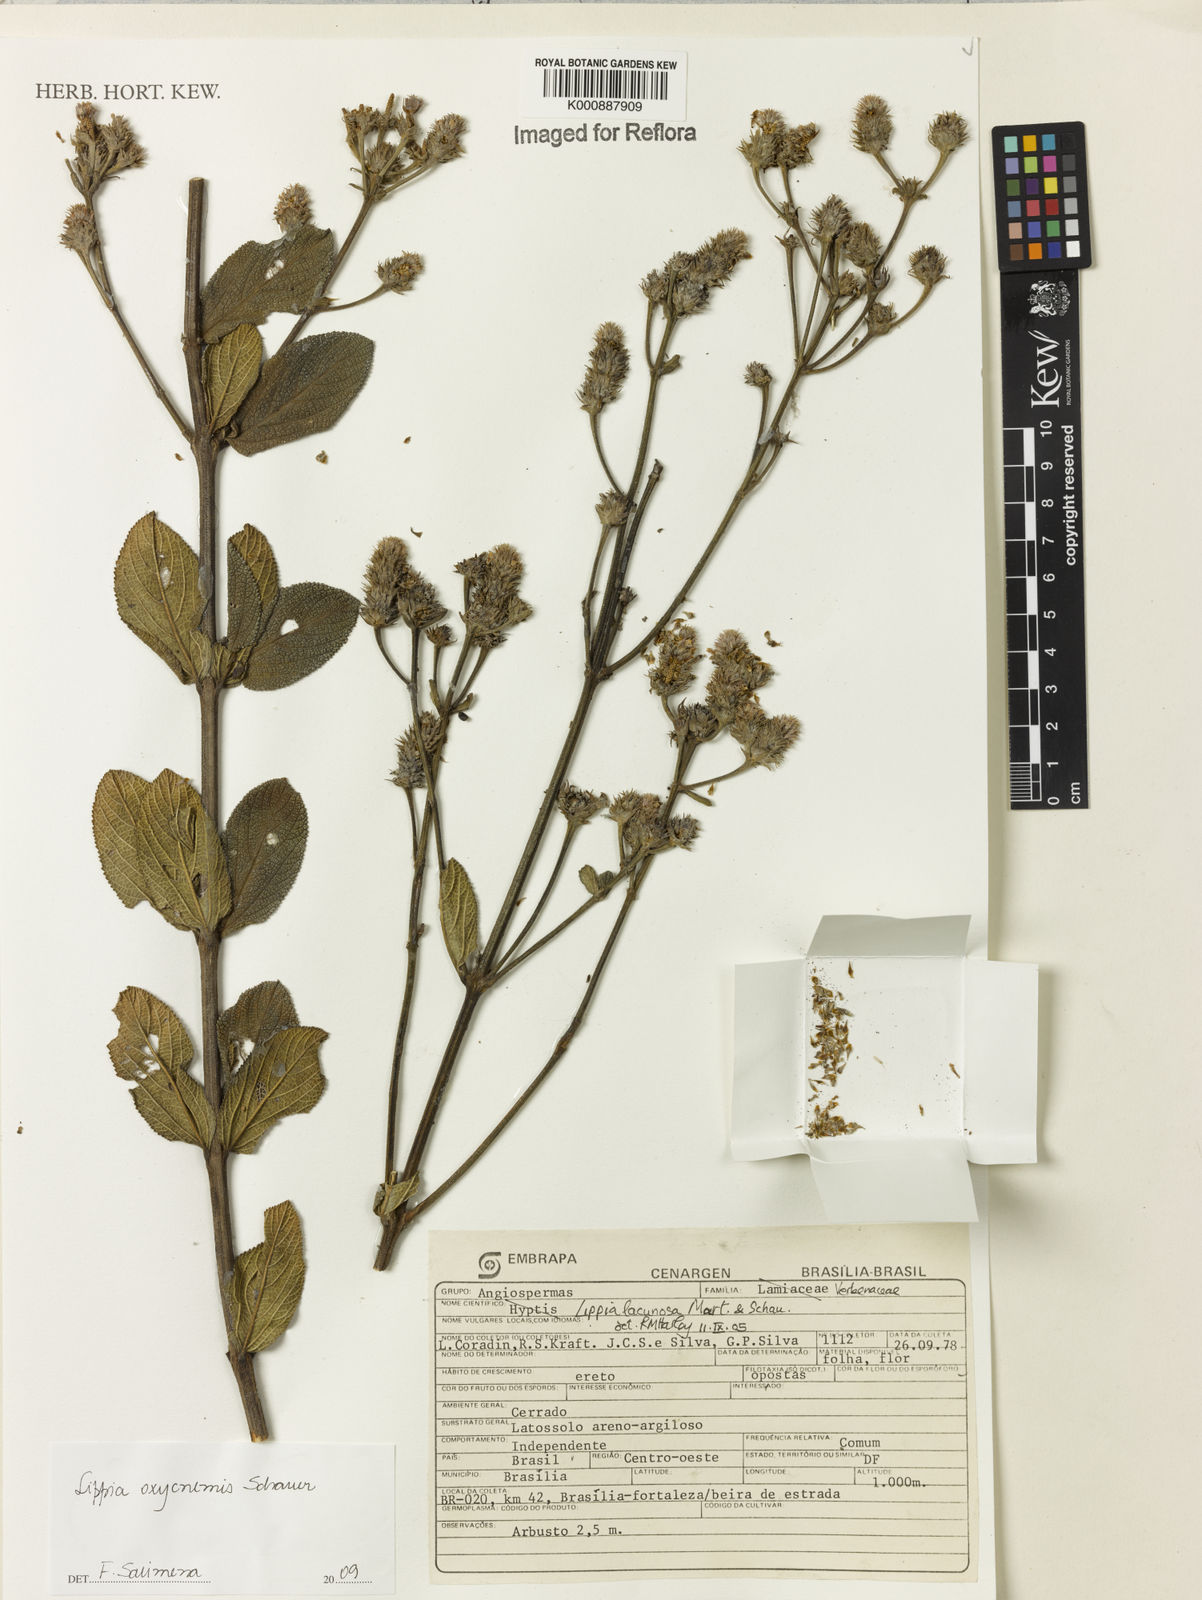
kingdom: Plantae
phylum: Tracheophyta
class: Magnoliopsida
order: Lamiales
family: Verbenaceae
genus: Lippia
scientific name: Lippia oxycnemis
